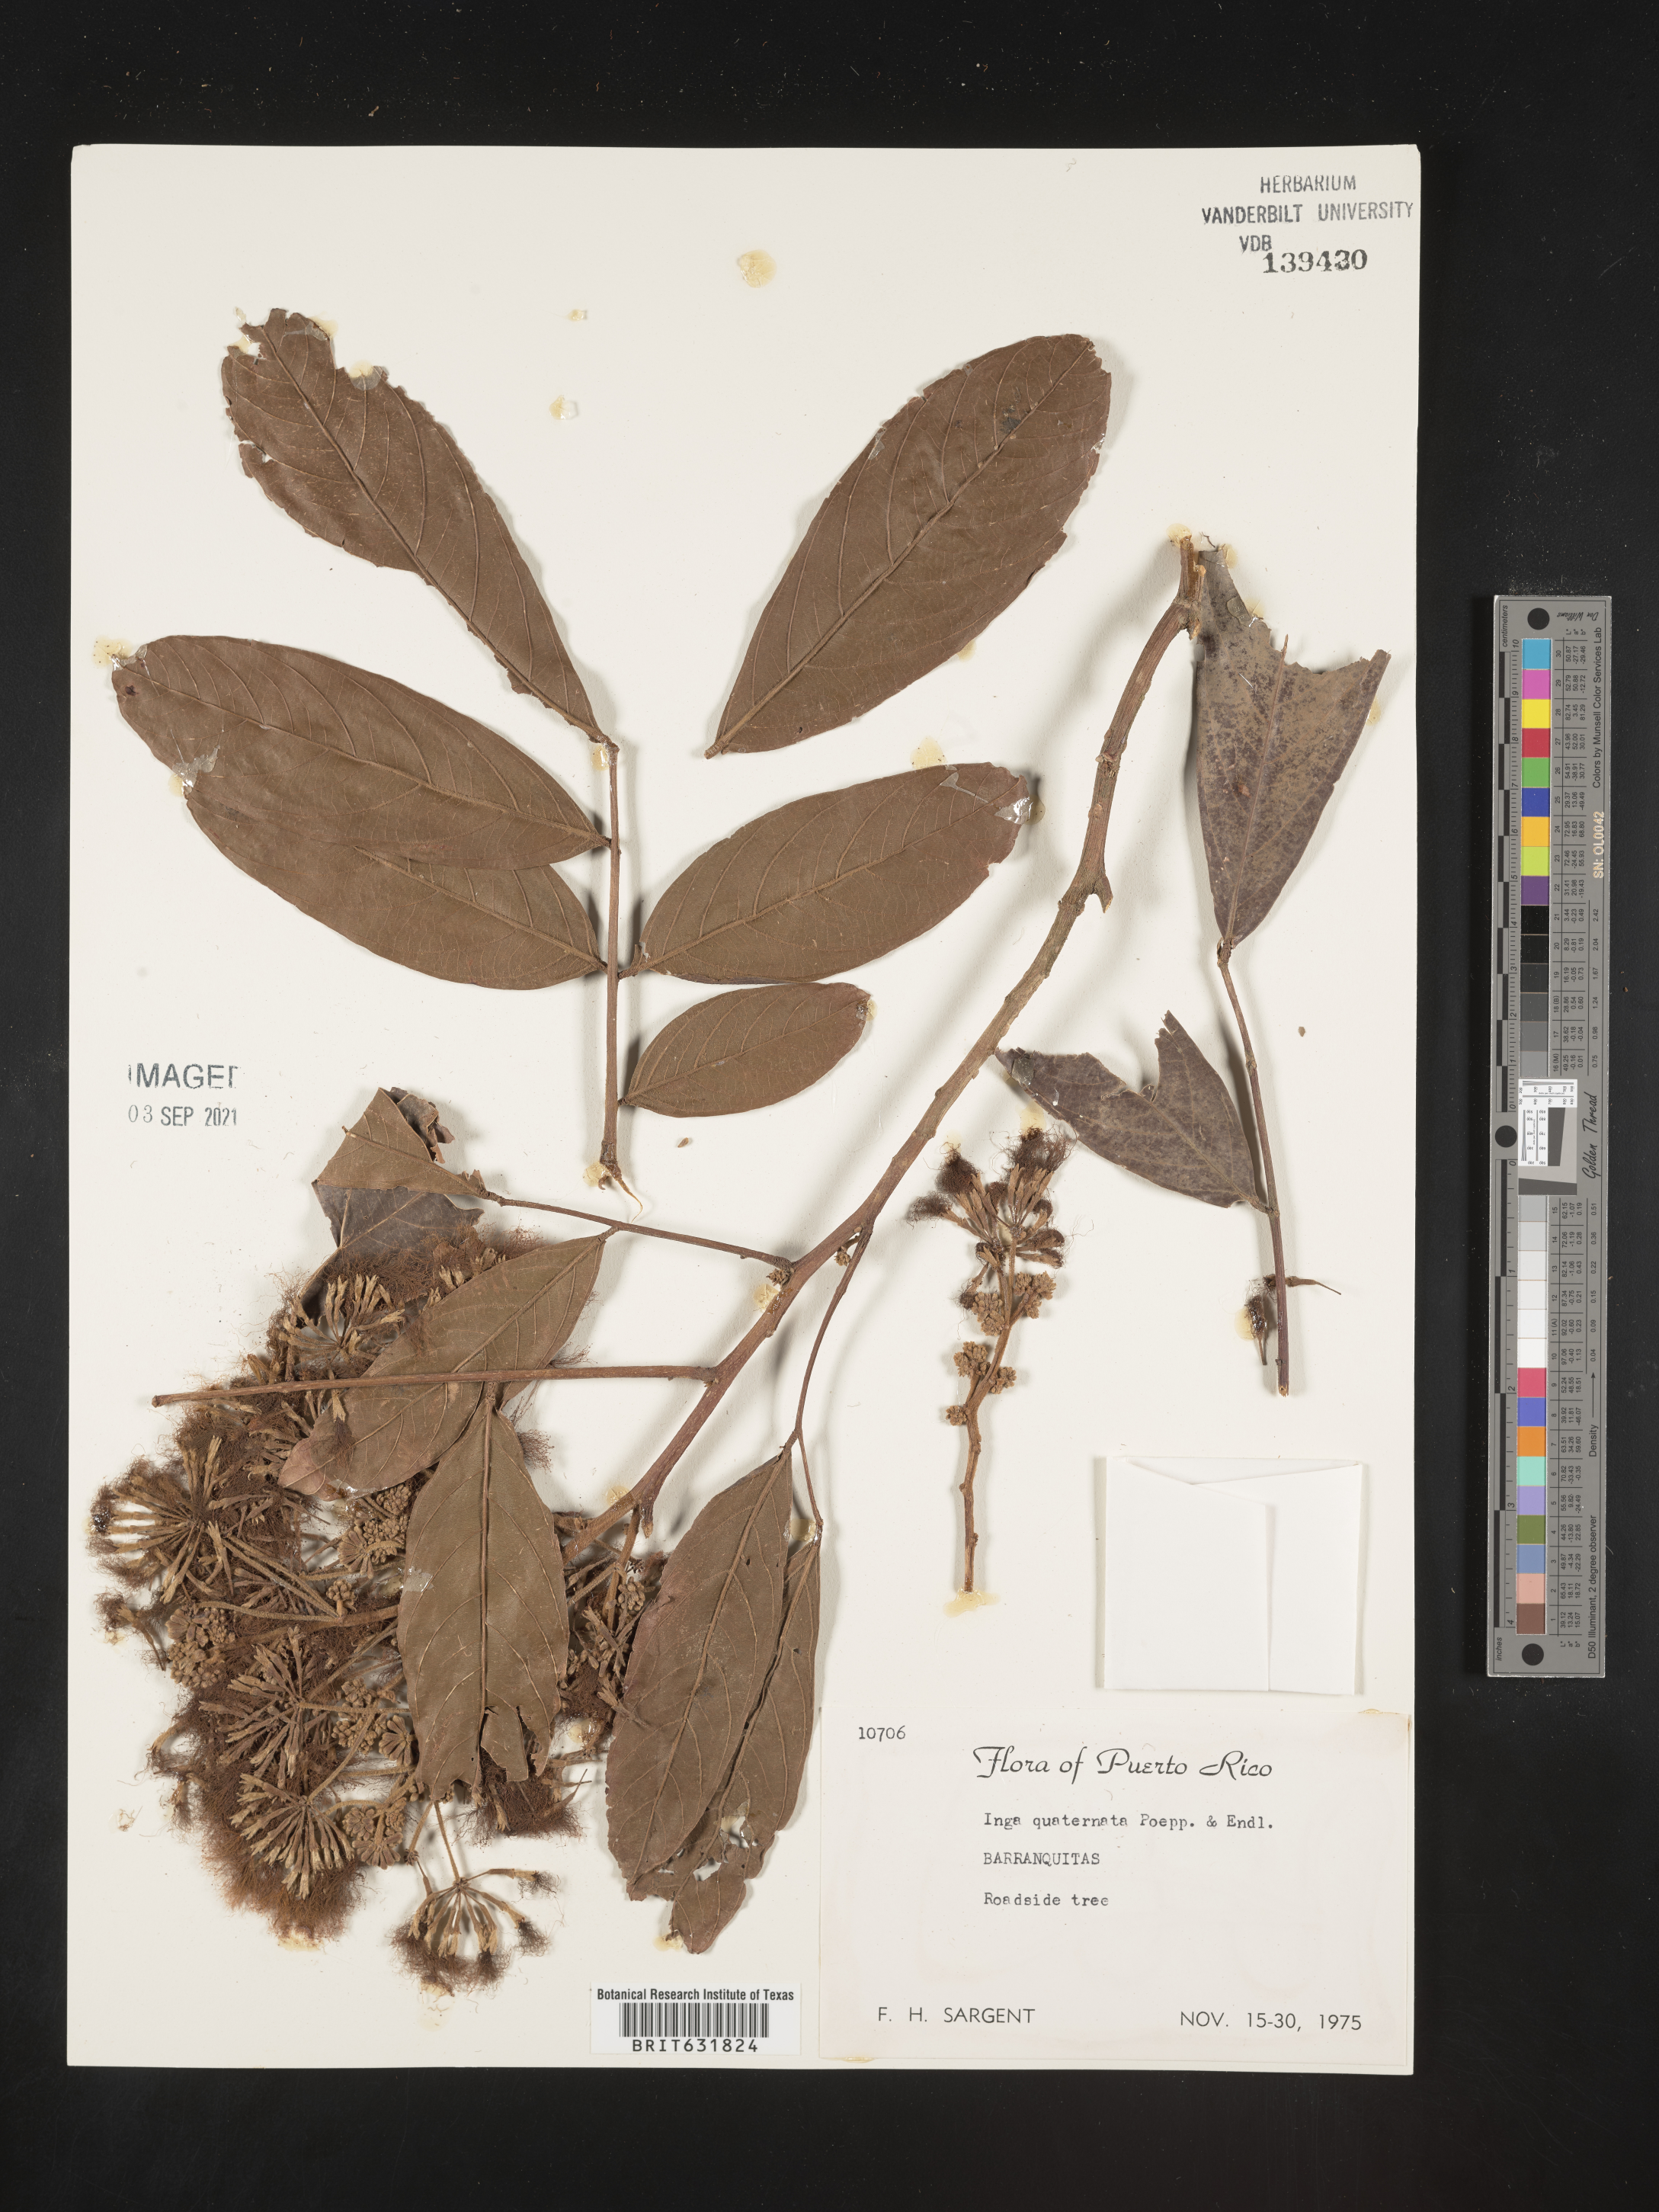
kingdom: Plantae
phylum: Tracheophyta
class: Magnoliopsida
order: Fabales
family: Fabaceae
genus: Inga
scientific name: Inga
